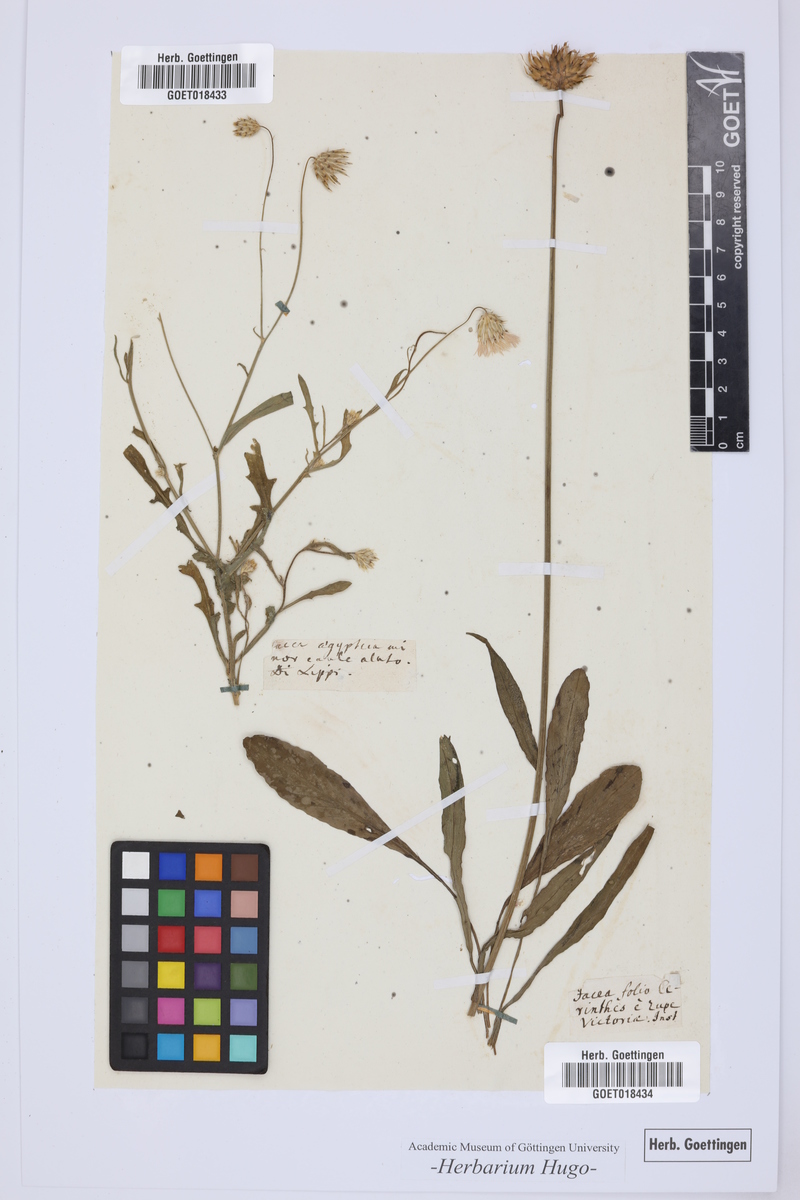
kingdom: Plantae
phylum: Tracheophyta
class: Magnoliopsida
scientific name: Magnoliopsida
